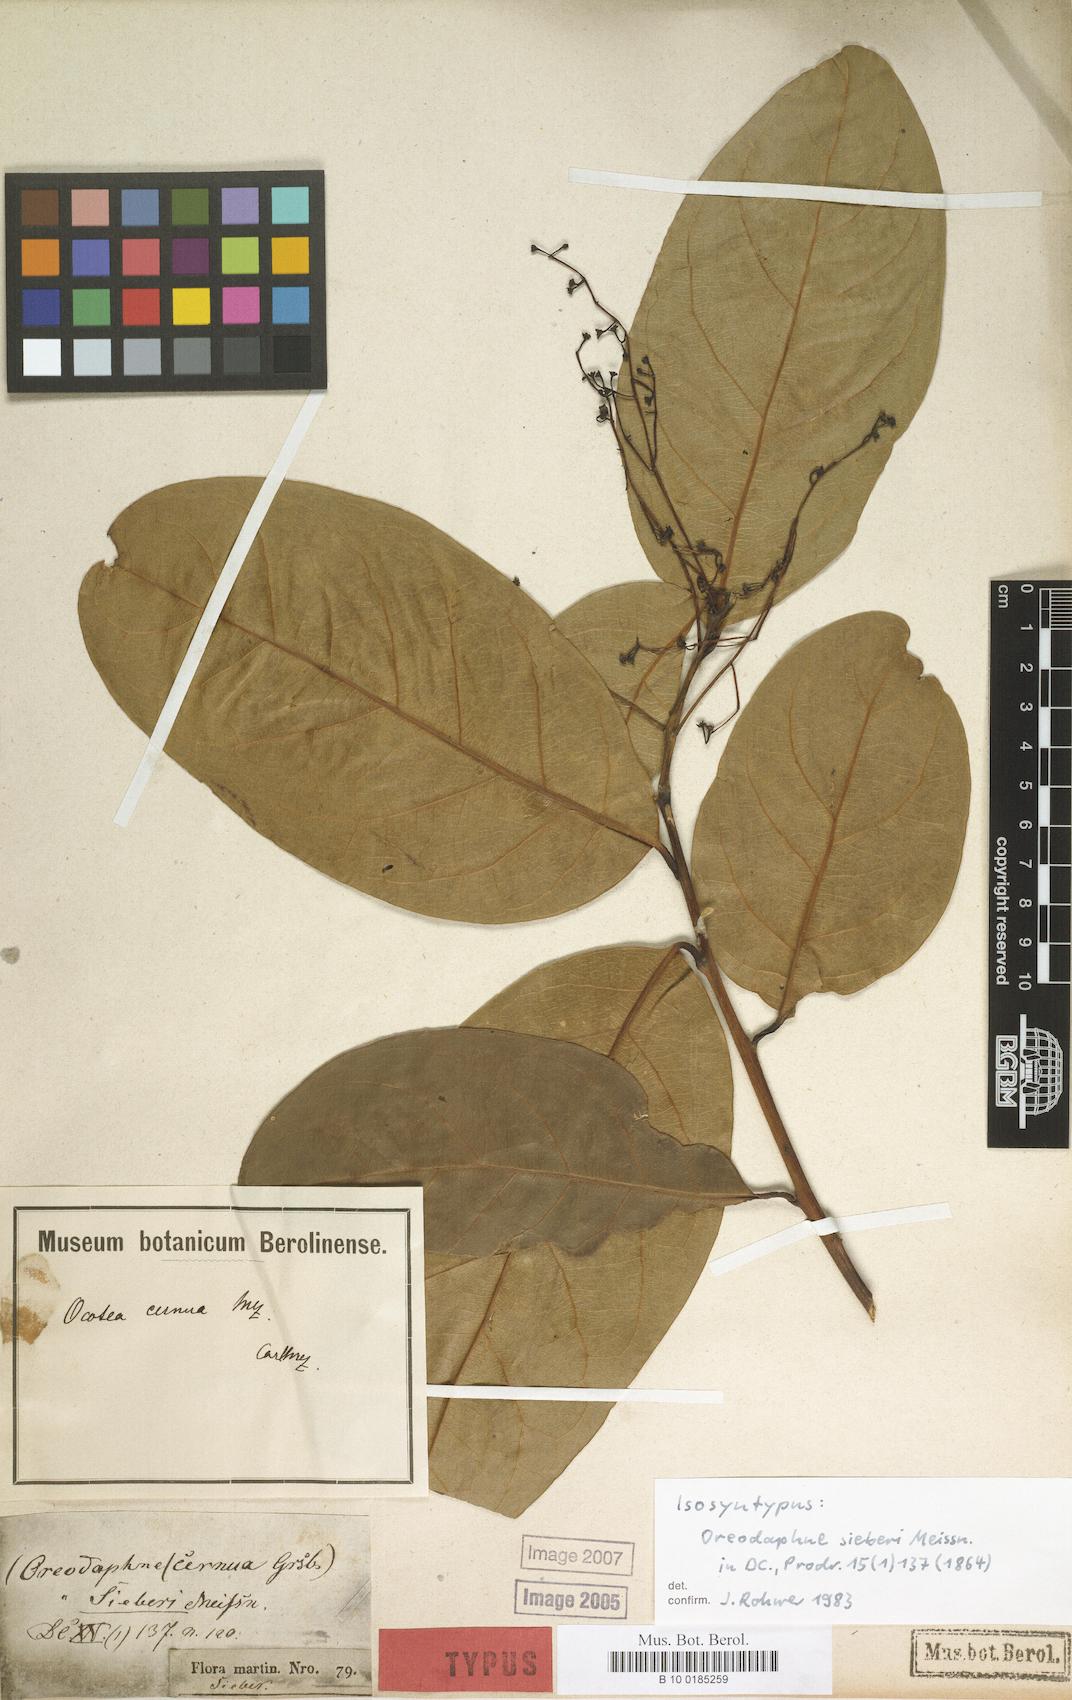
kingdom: Plantae
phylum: Tracheophyta
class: Magnoliopsida
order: Laurales
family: Lauraceae
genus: Ocotea
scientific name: Ocotea leptobotra
